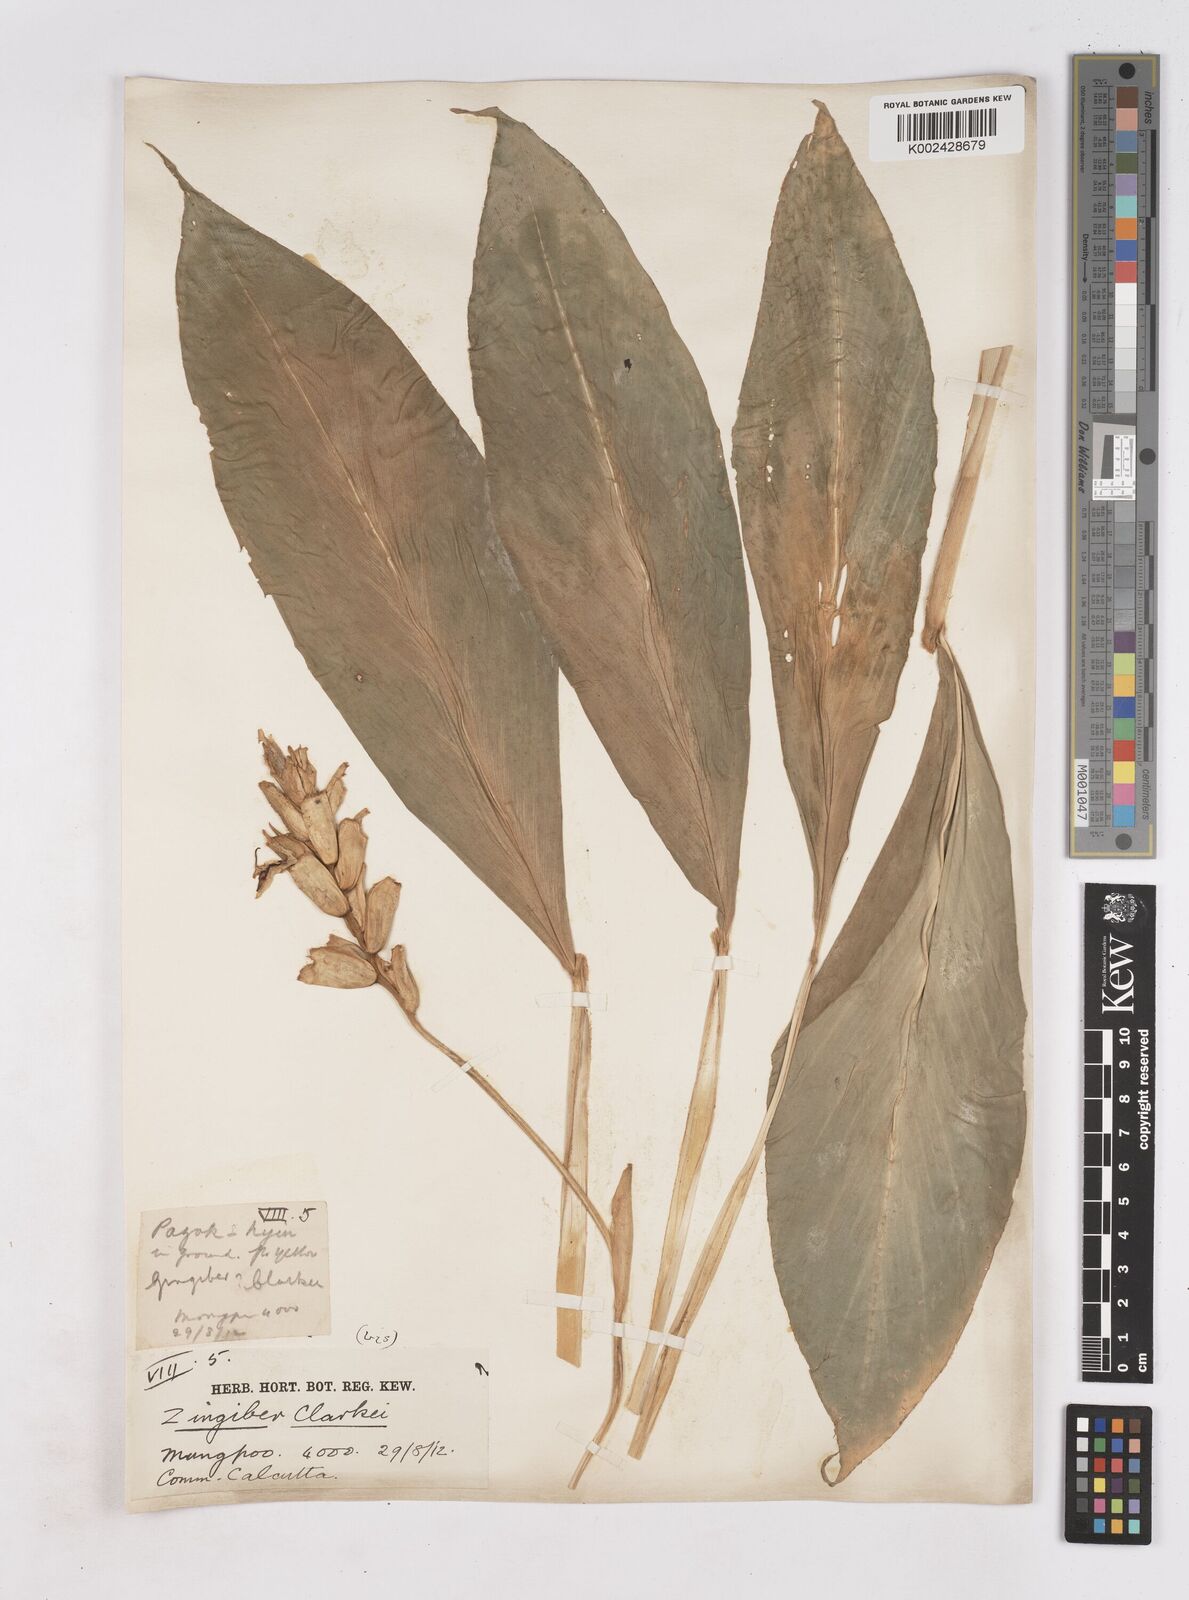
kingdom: Plantae
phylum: Tracheophyta
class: Liliopsida
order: Zingiberales
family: Zingiberaceae
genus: Zingiber
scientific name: Zingiber clarkei
